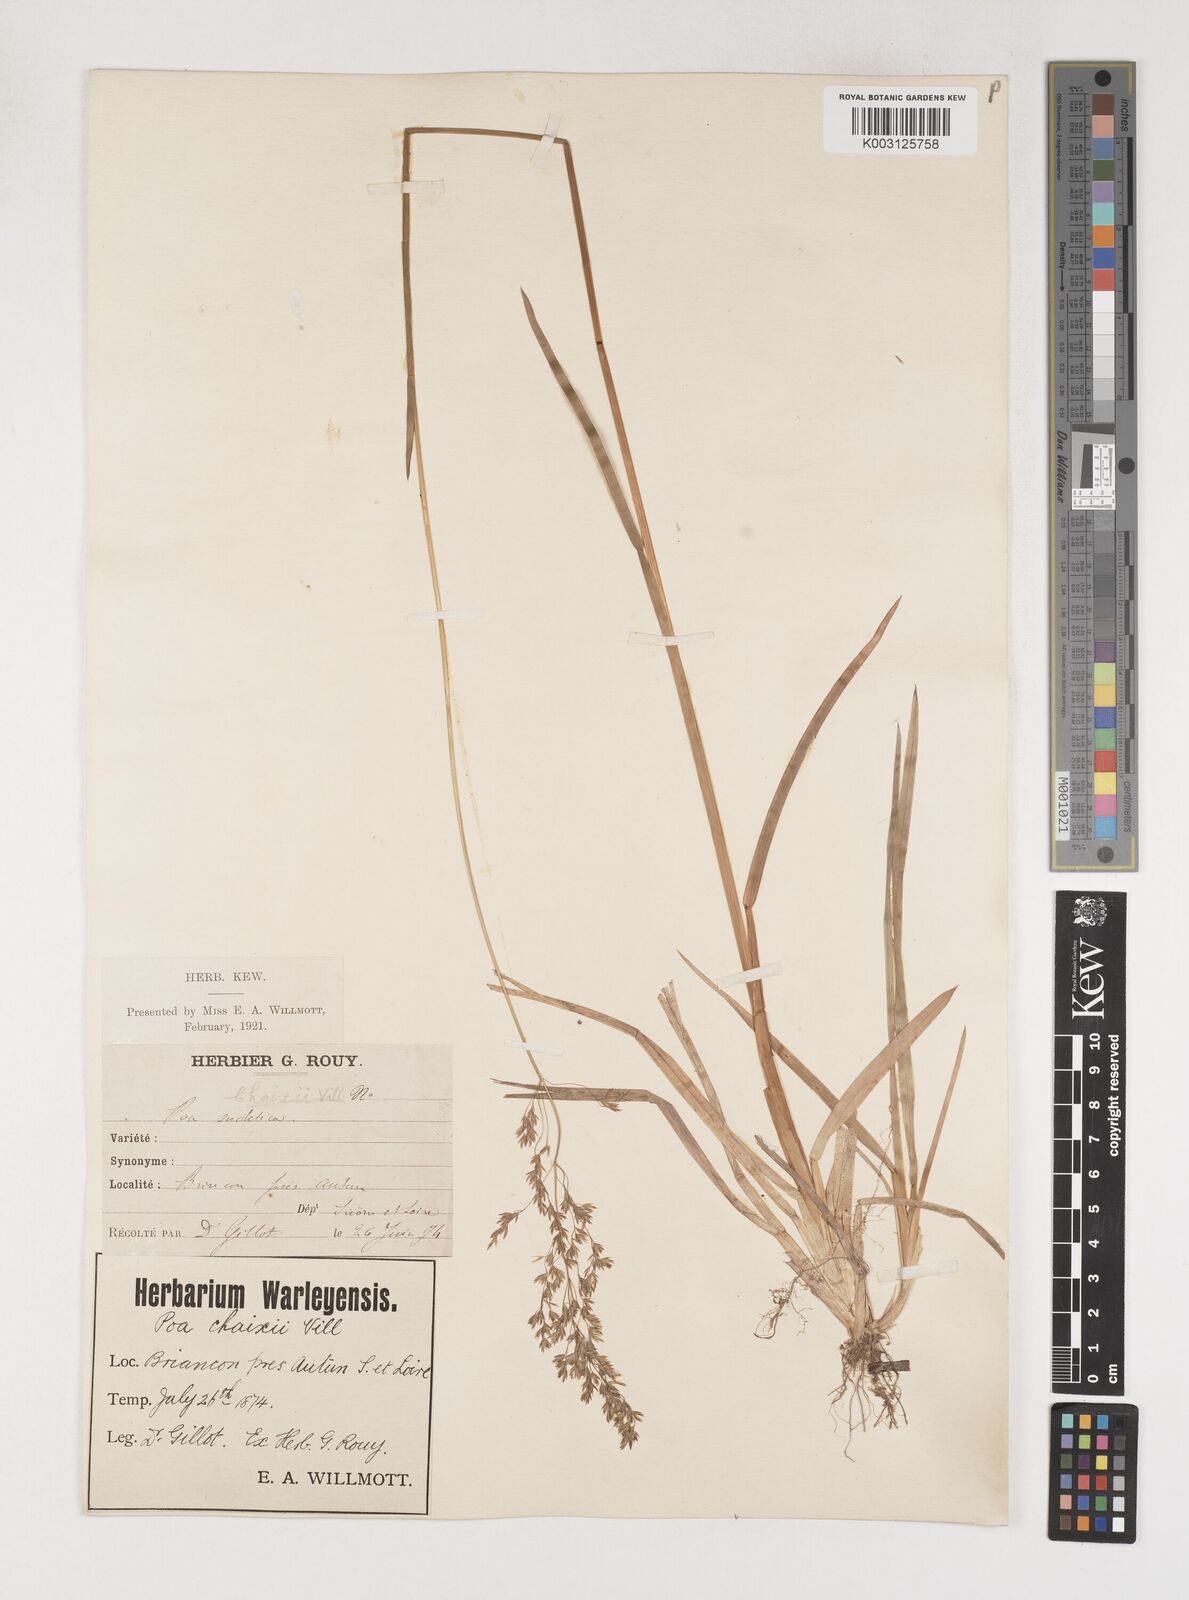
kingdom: Plantae
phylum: Tracheophyta
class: Liliopsida
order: Poales
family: Poaceae
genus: Poa
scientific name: Poa chaixii
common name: Broad-leaved meadow-grass
